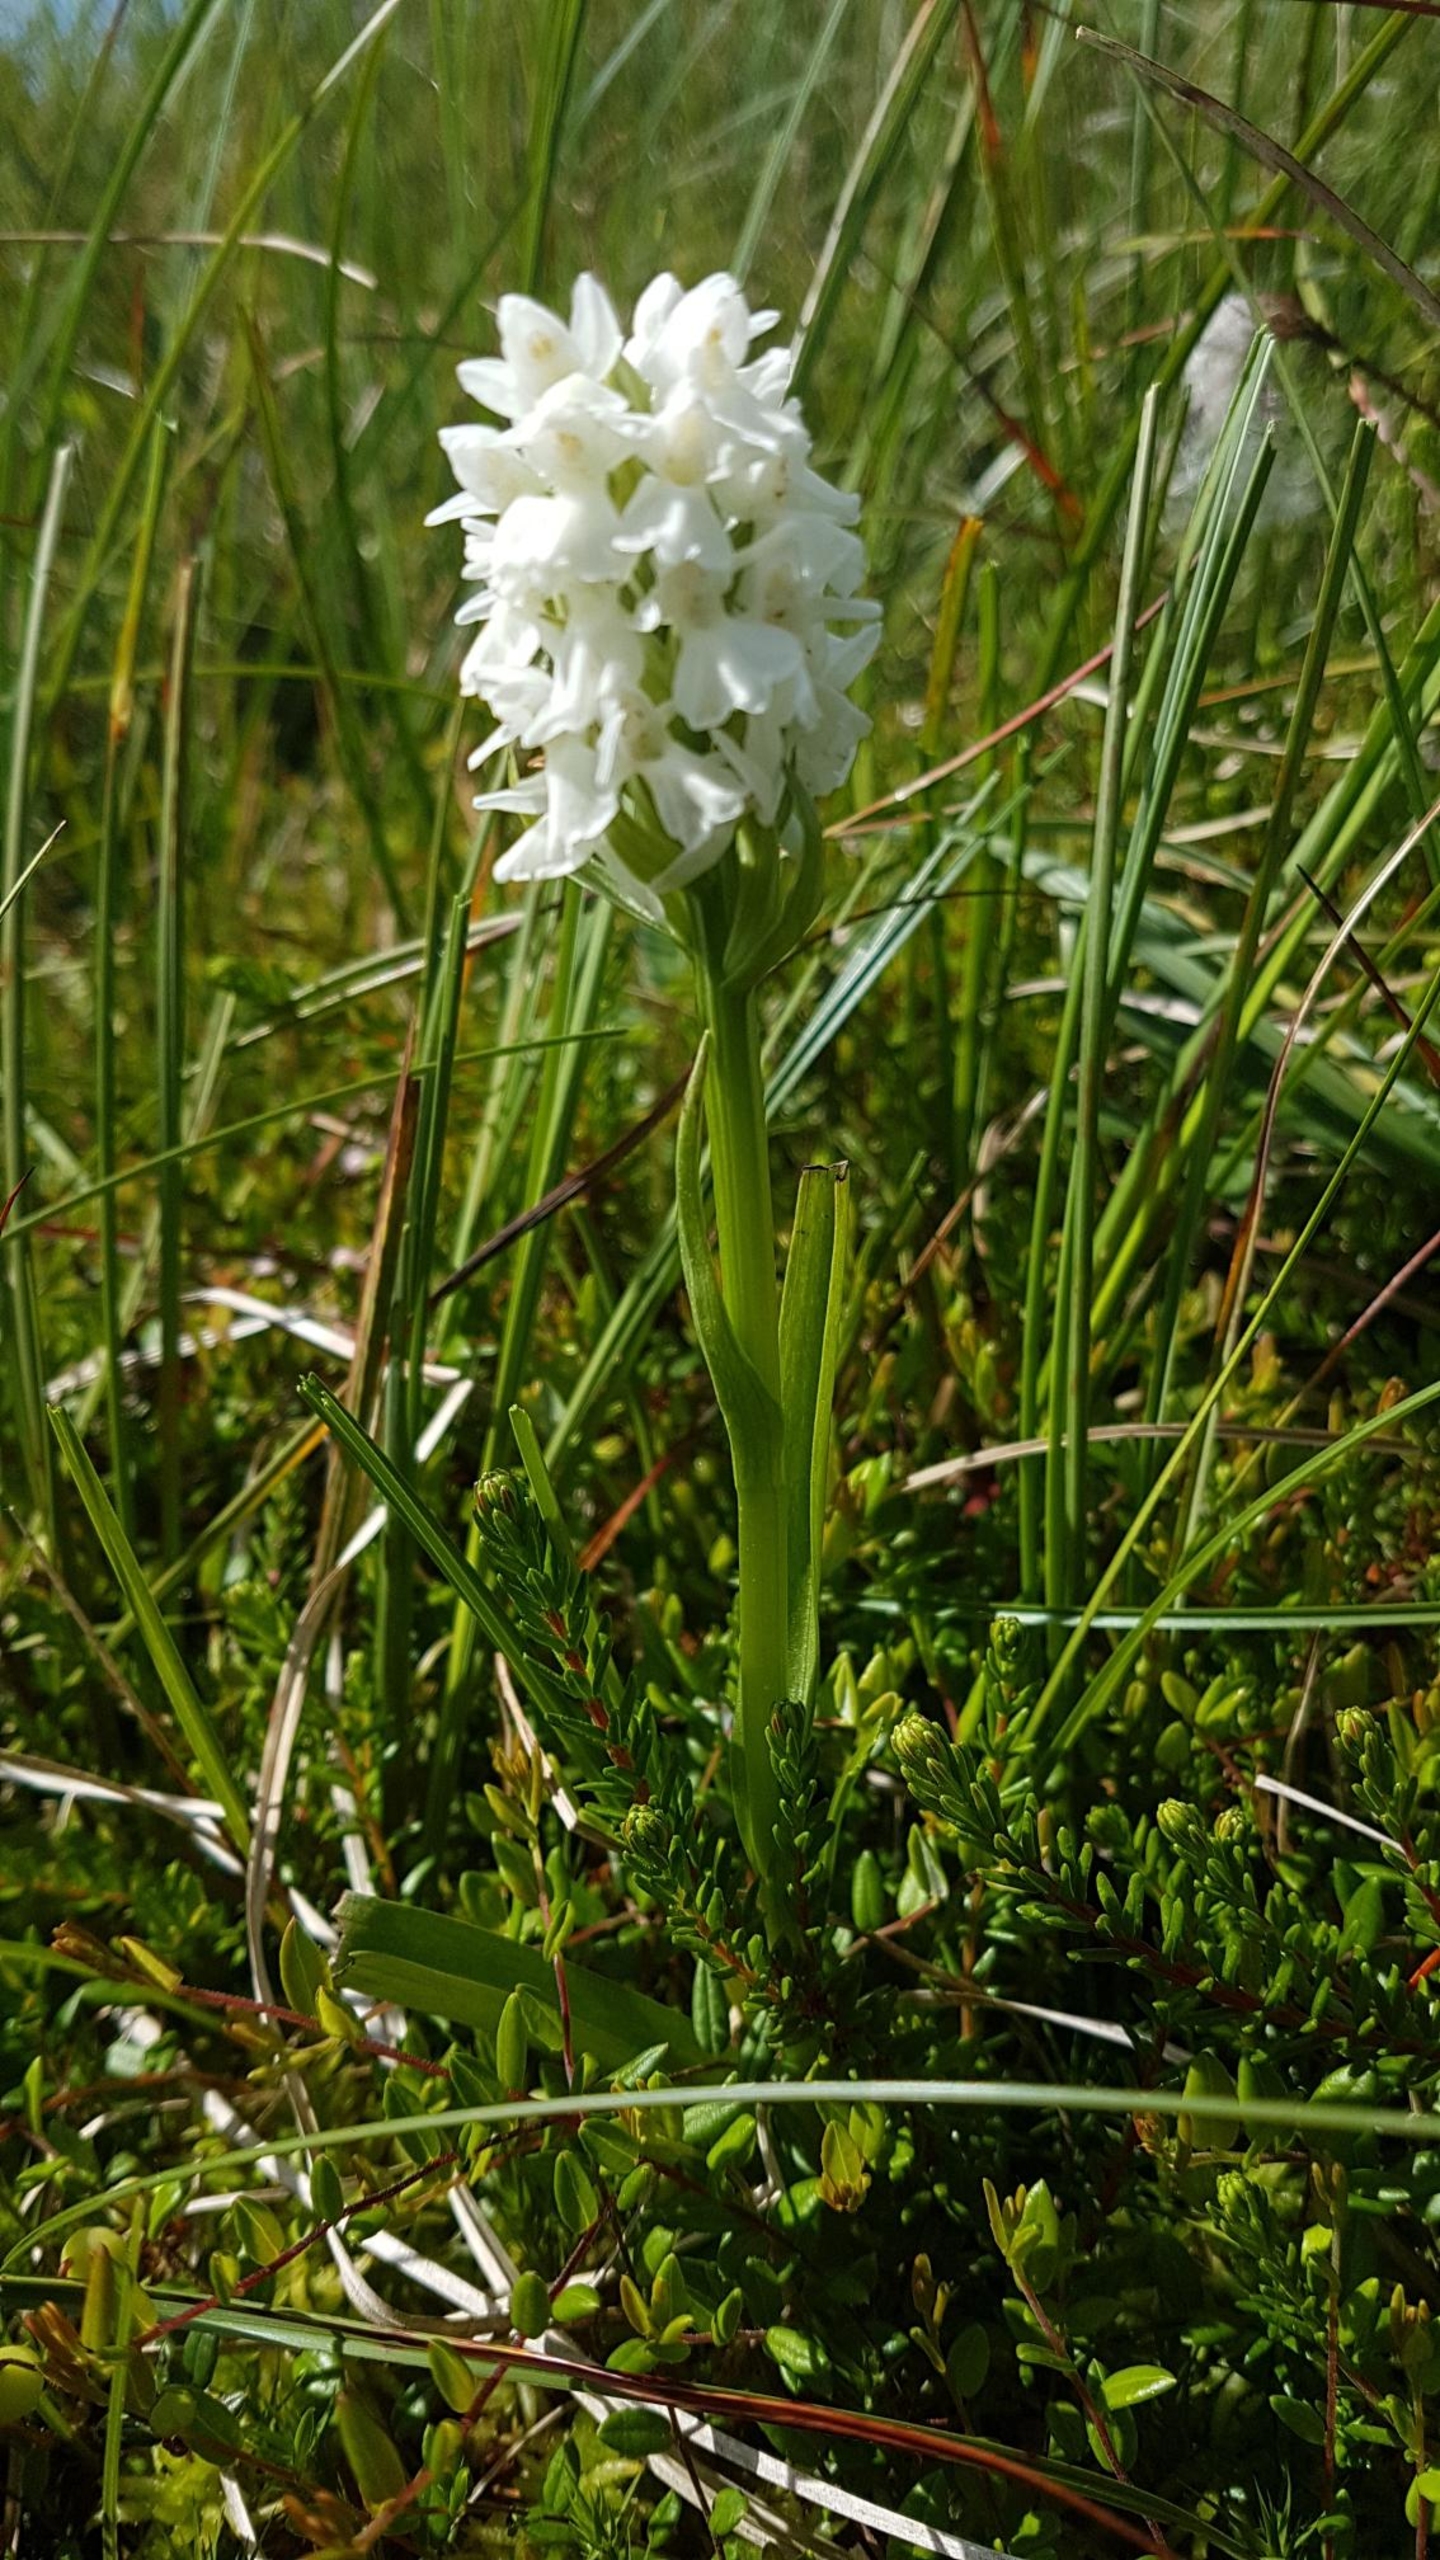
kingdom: Plantae
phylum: Tracheophyta
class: Liliopsida
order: Asparagales
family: Orchidaceae
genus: Dactylorhiza
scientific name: Dactylorhiza majalis
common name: Thy-gøgeurt
